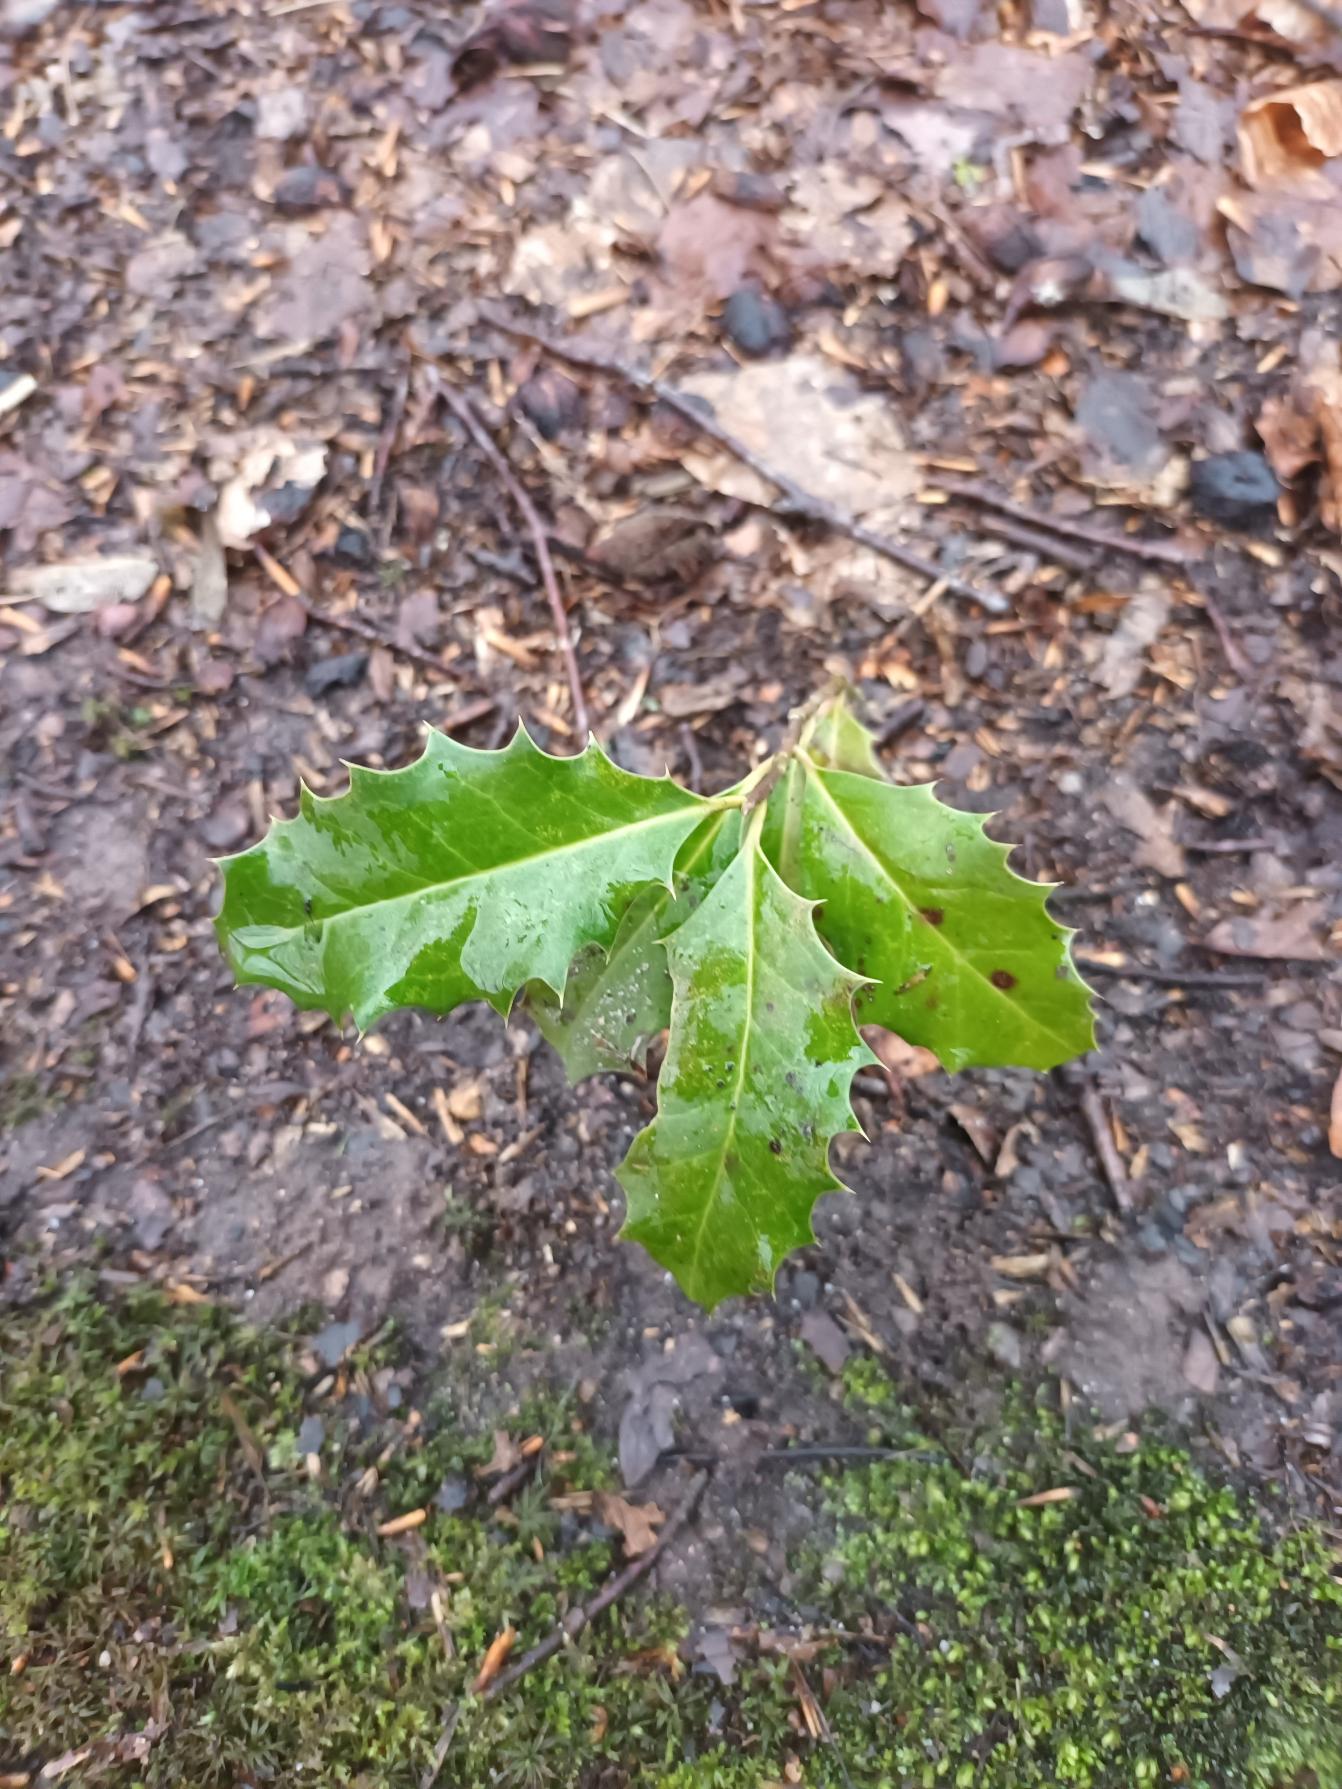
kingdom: Plantae
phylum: Tracheophyta
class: Magnoliopsida
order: Aquifoliales
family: Aquifoliaceae
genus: Ilex
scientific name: Ilex aquifolium
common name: Kristtorn
